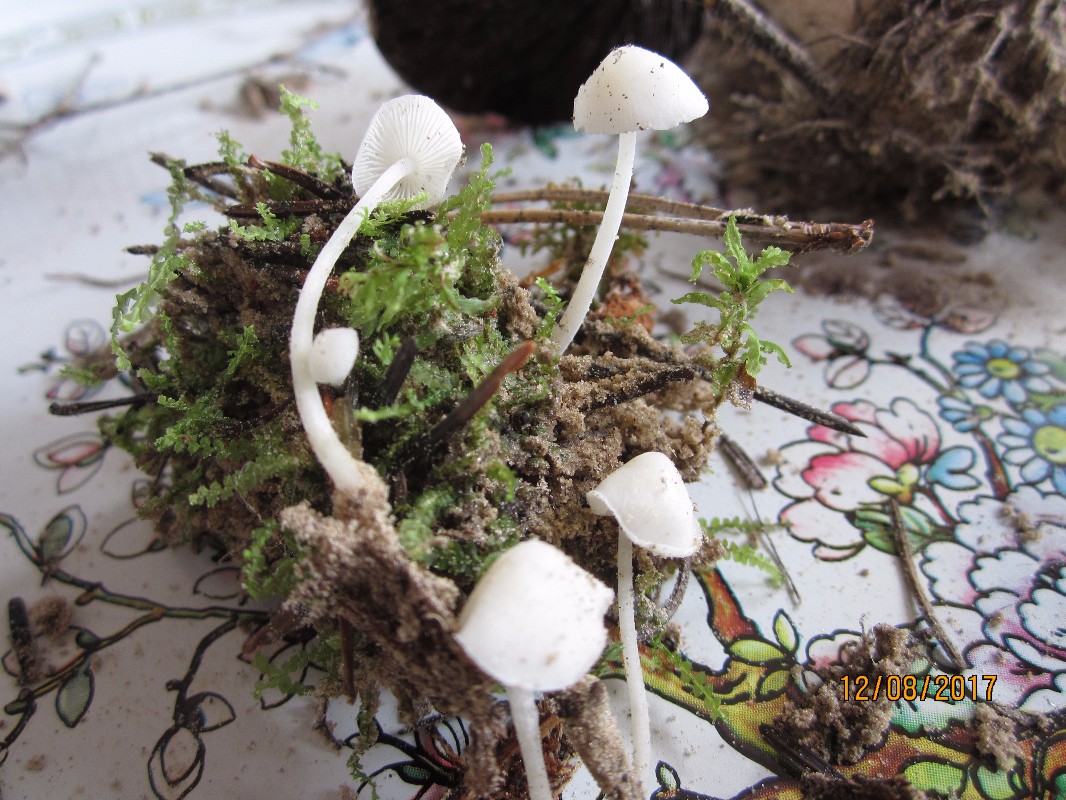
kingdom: Fungi
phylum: Basidiomycota
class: Agaricomycetes
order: Agaricales
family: Mycenaceae
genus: Hemimycena
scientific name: Hemimycena cucullata
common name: tætbladet huesvamp
